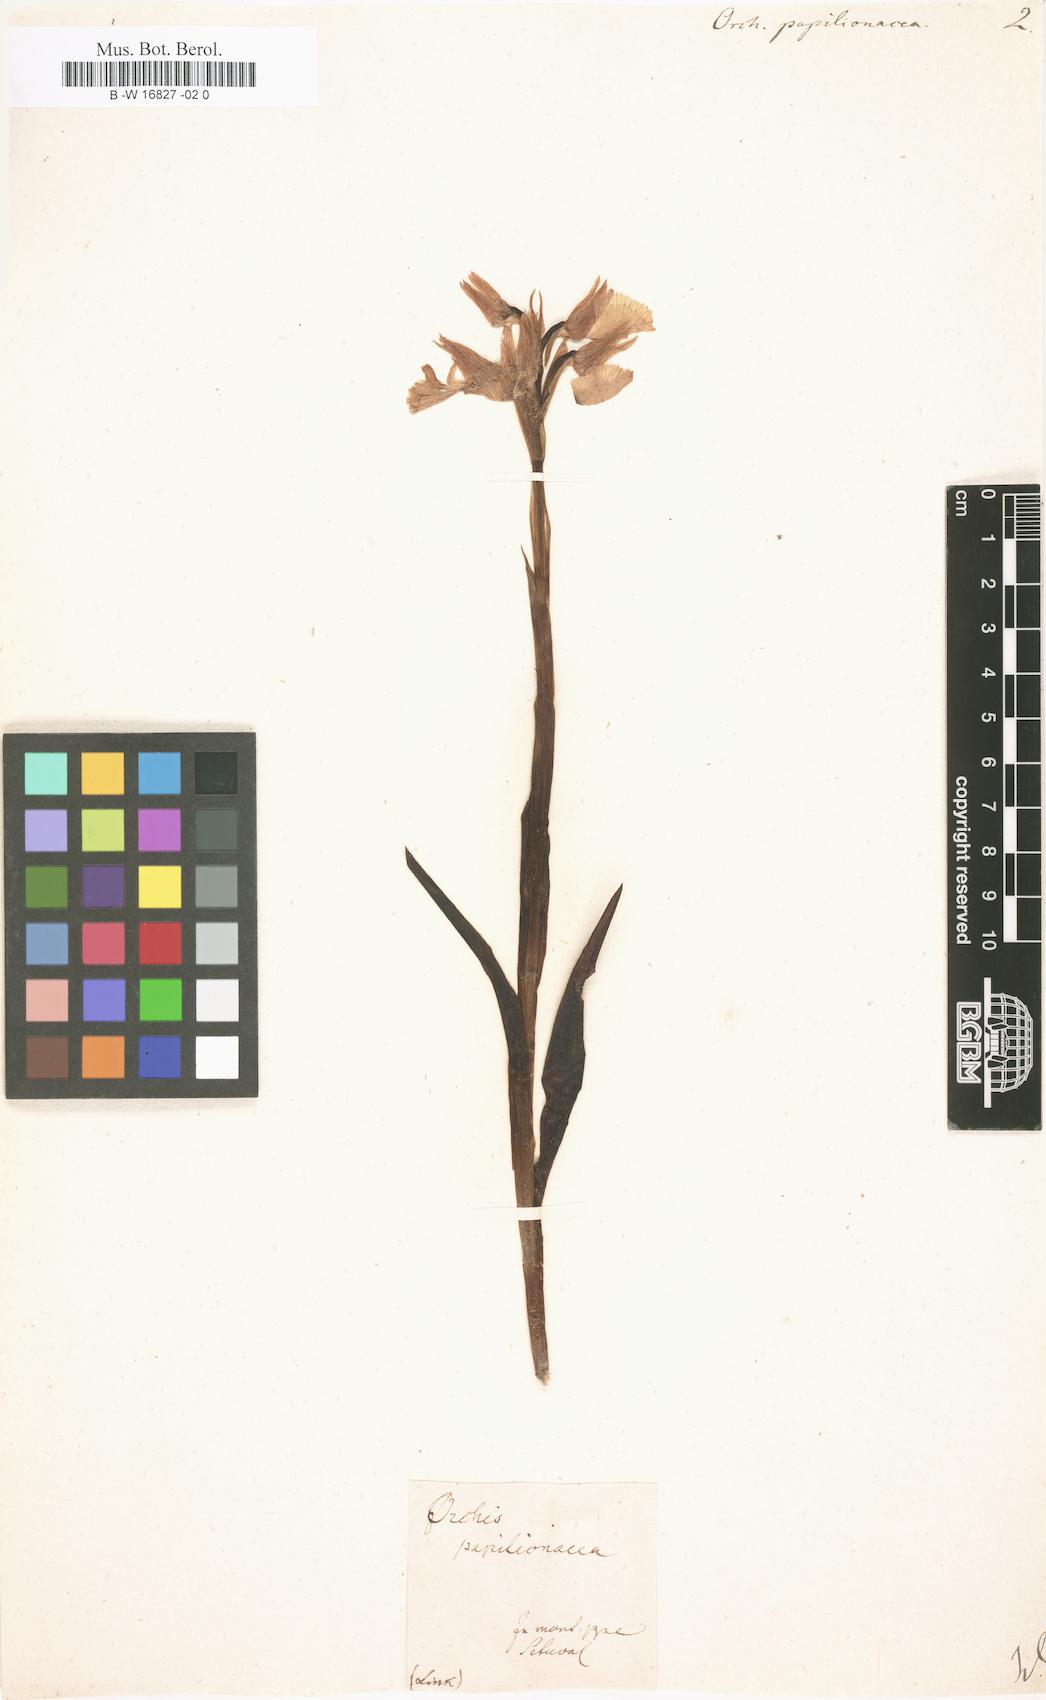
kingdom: Plantae
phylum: Tracheophyta
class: Liliopsida
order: Asparagales
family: Orchidaceae
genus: Anacamptis
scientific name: Anacamptis papilionacea
